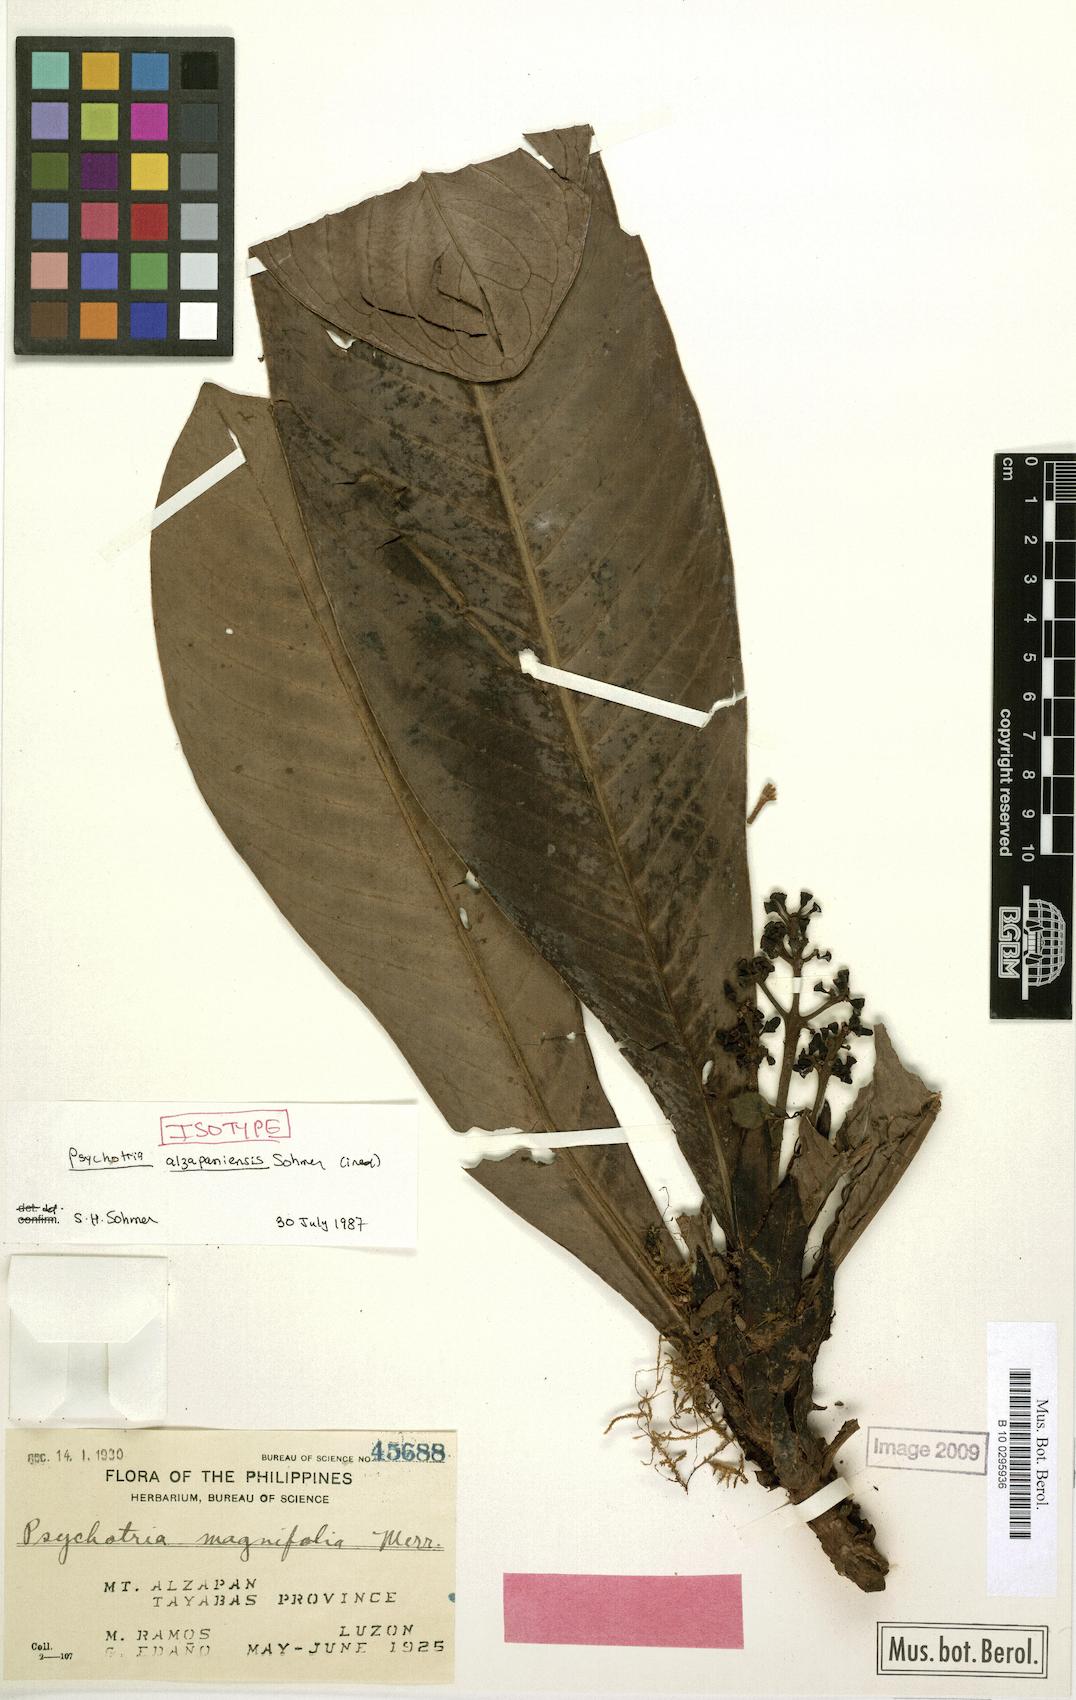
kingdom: Plantae
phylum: Tracheophyta
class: Magnoliopsida
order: Gentianales
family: Rubiaceae
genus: Psychotria
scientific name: Psychotria alzapaniensis
